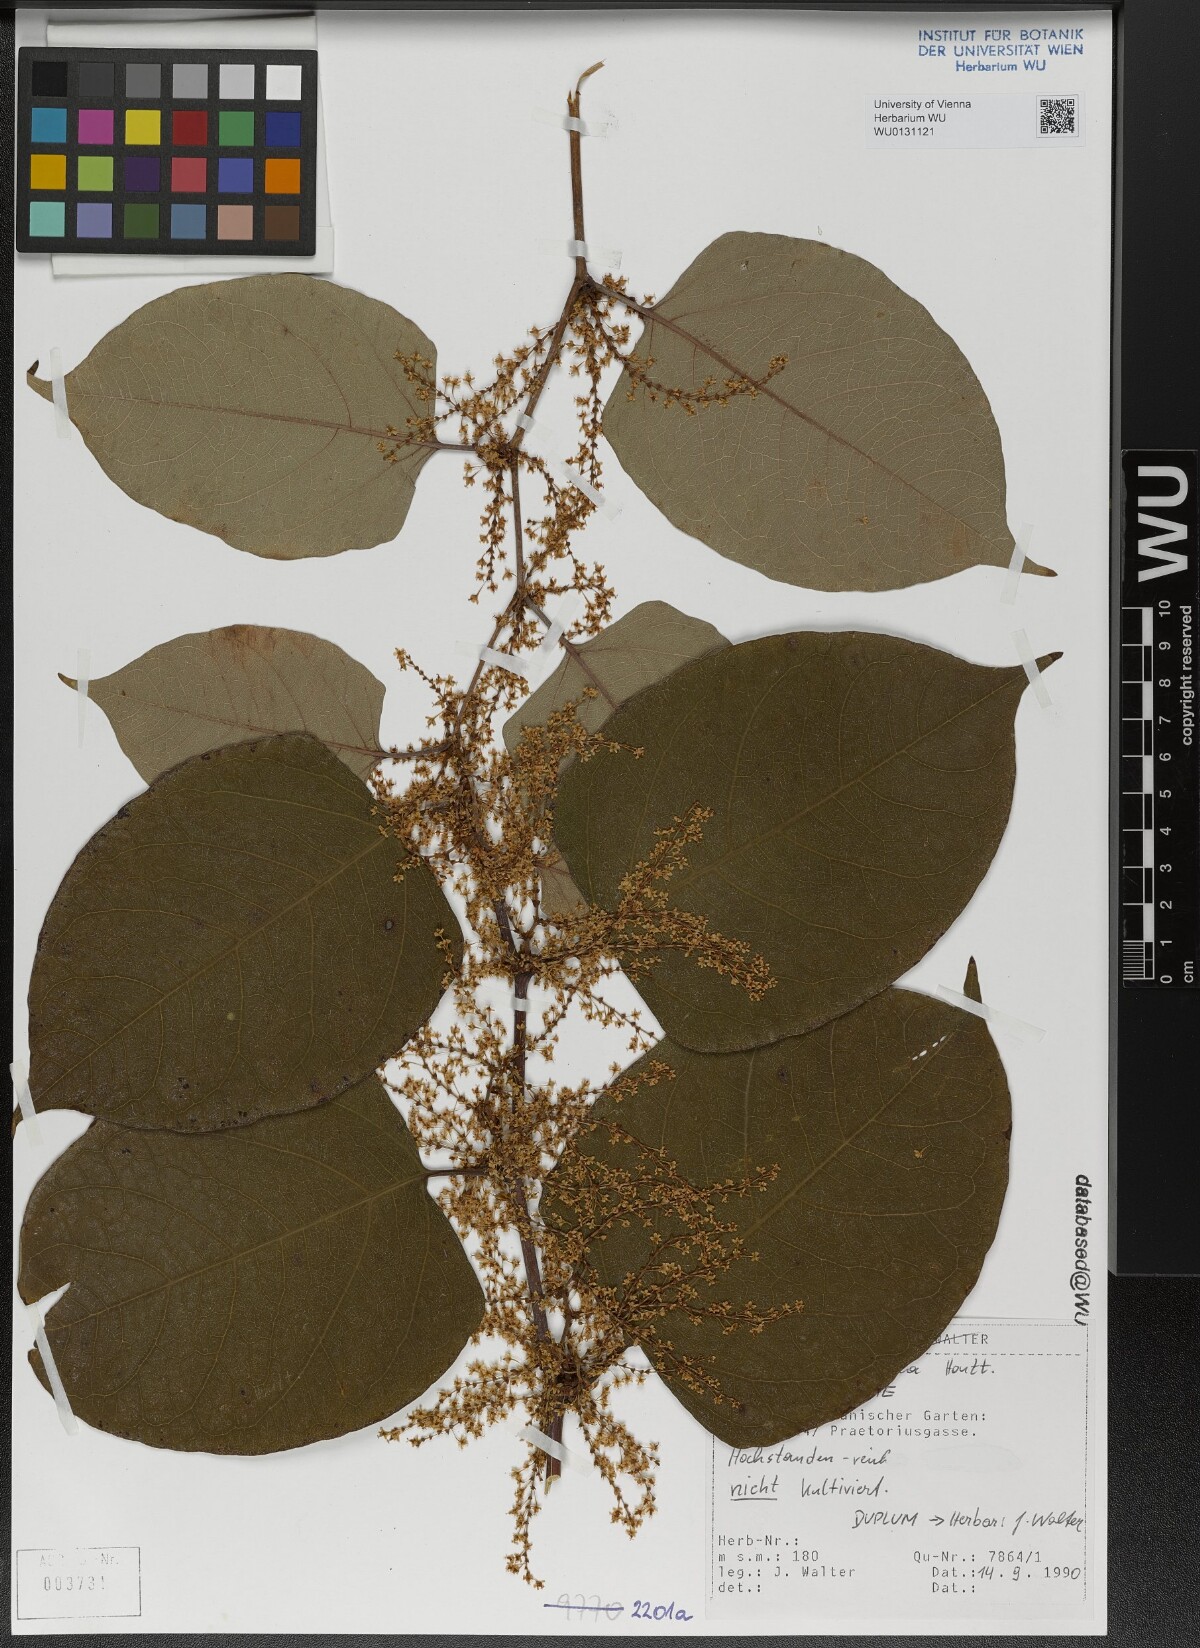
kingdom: Plantae
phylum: Tracheophyta
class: Magnoliopsida
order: Caryophyllales
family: Polygonaceae
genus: Reynoutria
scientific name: Reynoutria bohemica
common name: Bohemian knotweed
